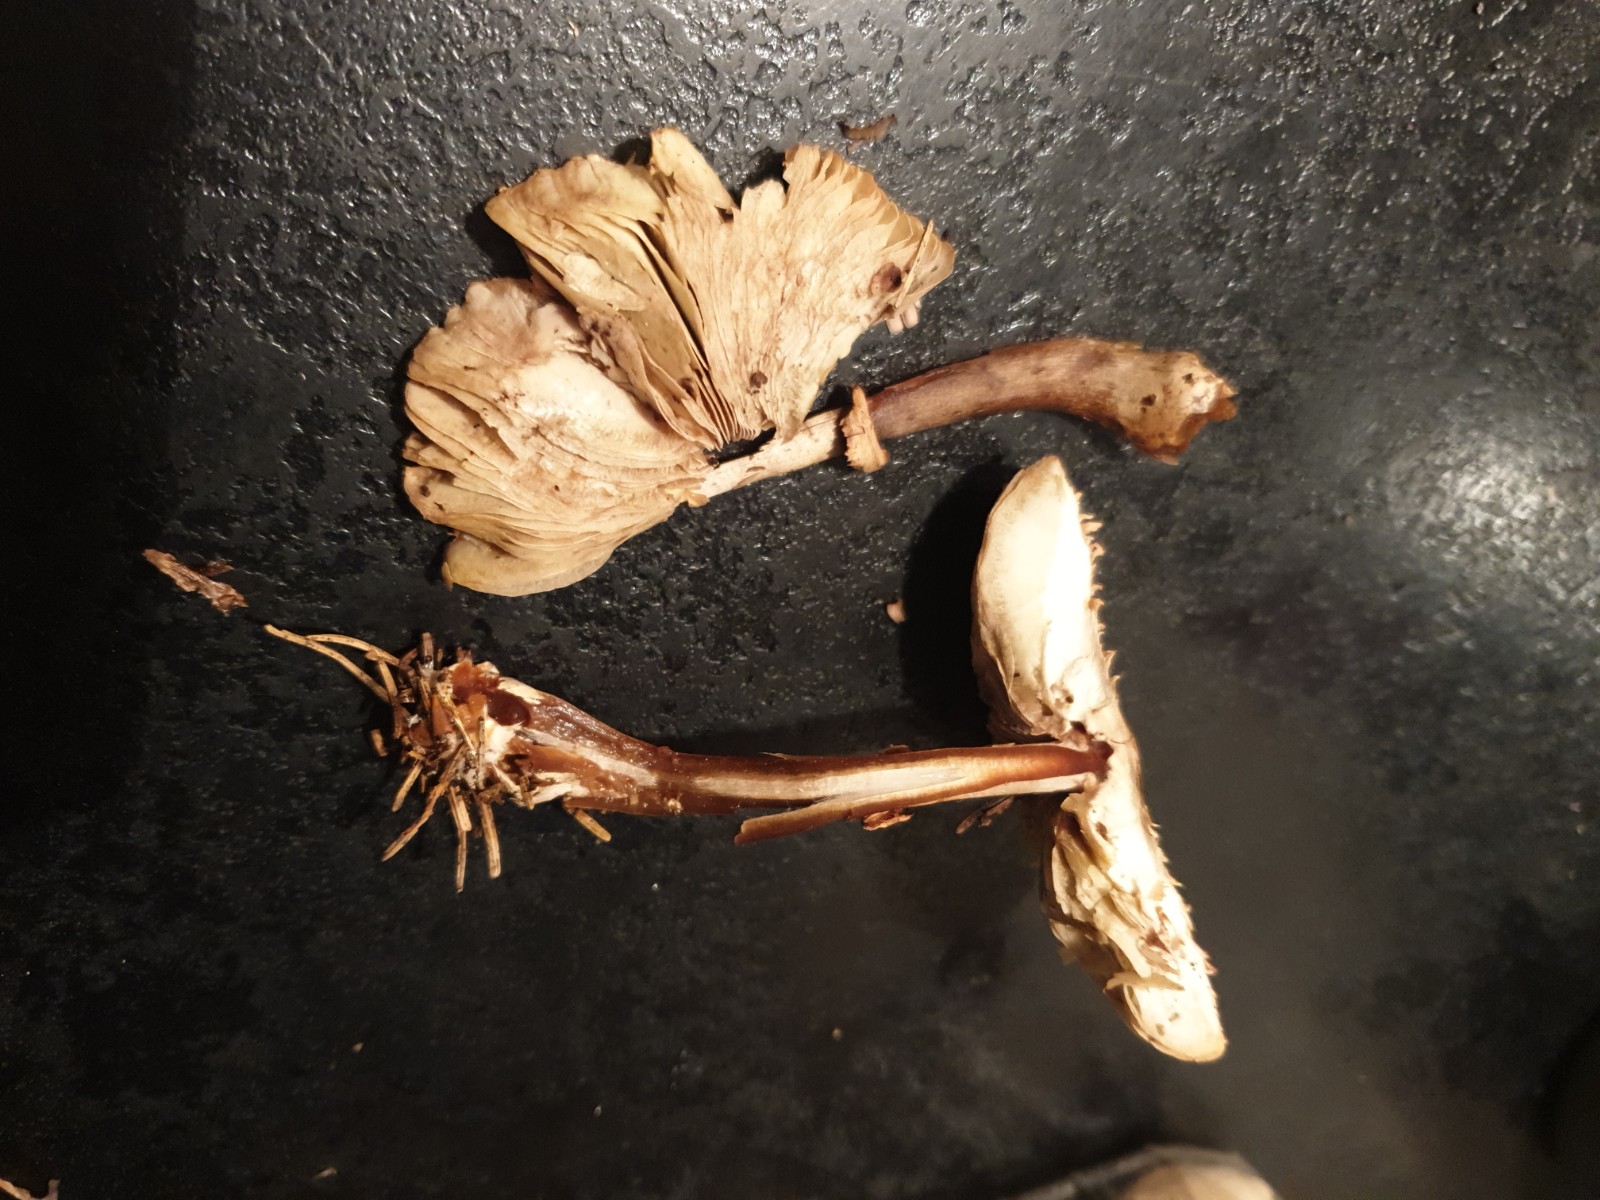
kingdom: Fungi
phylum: Basidiomycota
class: Agaricomycetes
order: Agaricales
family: Agaricaceae
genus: Chlorophyllum
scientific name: Chlorophyllum olivieri
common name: almindelig rabarberhat
